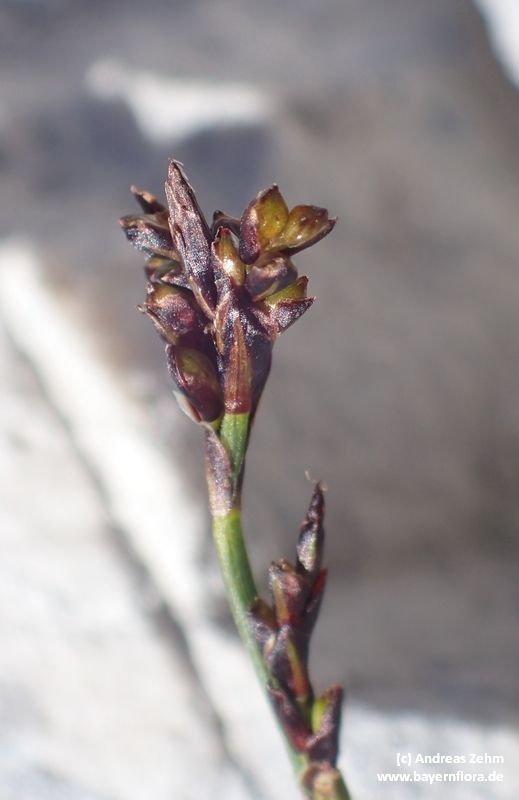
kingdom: Plantae
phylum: Tracheophyta
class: Liliopsida
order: Poales
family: Cyperaceae
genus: Carex
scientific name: Carex ornithopoda
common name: Bird's-foot sedge
